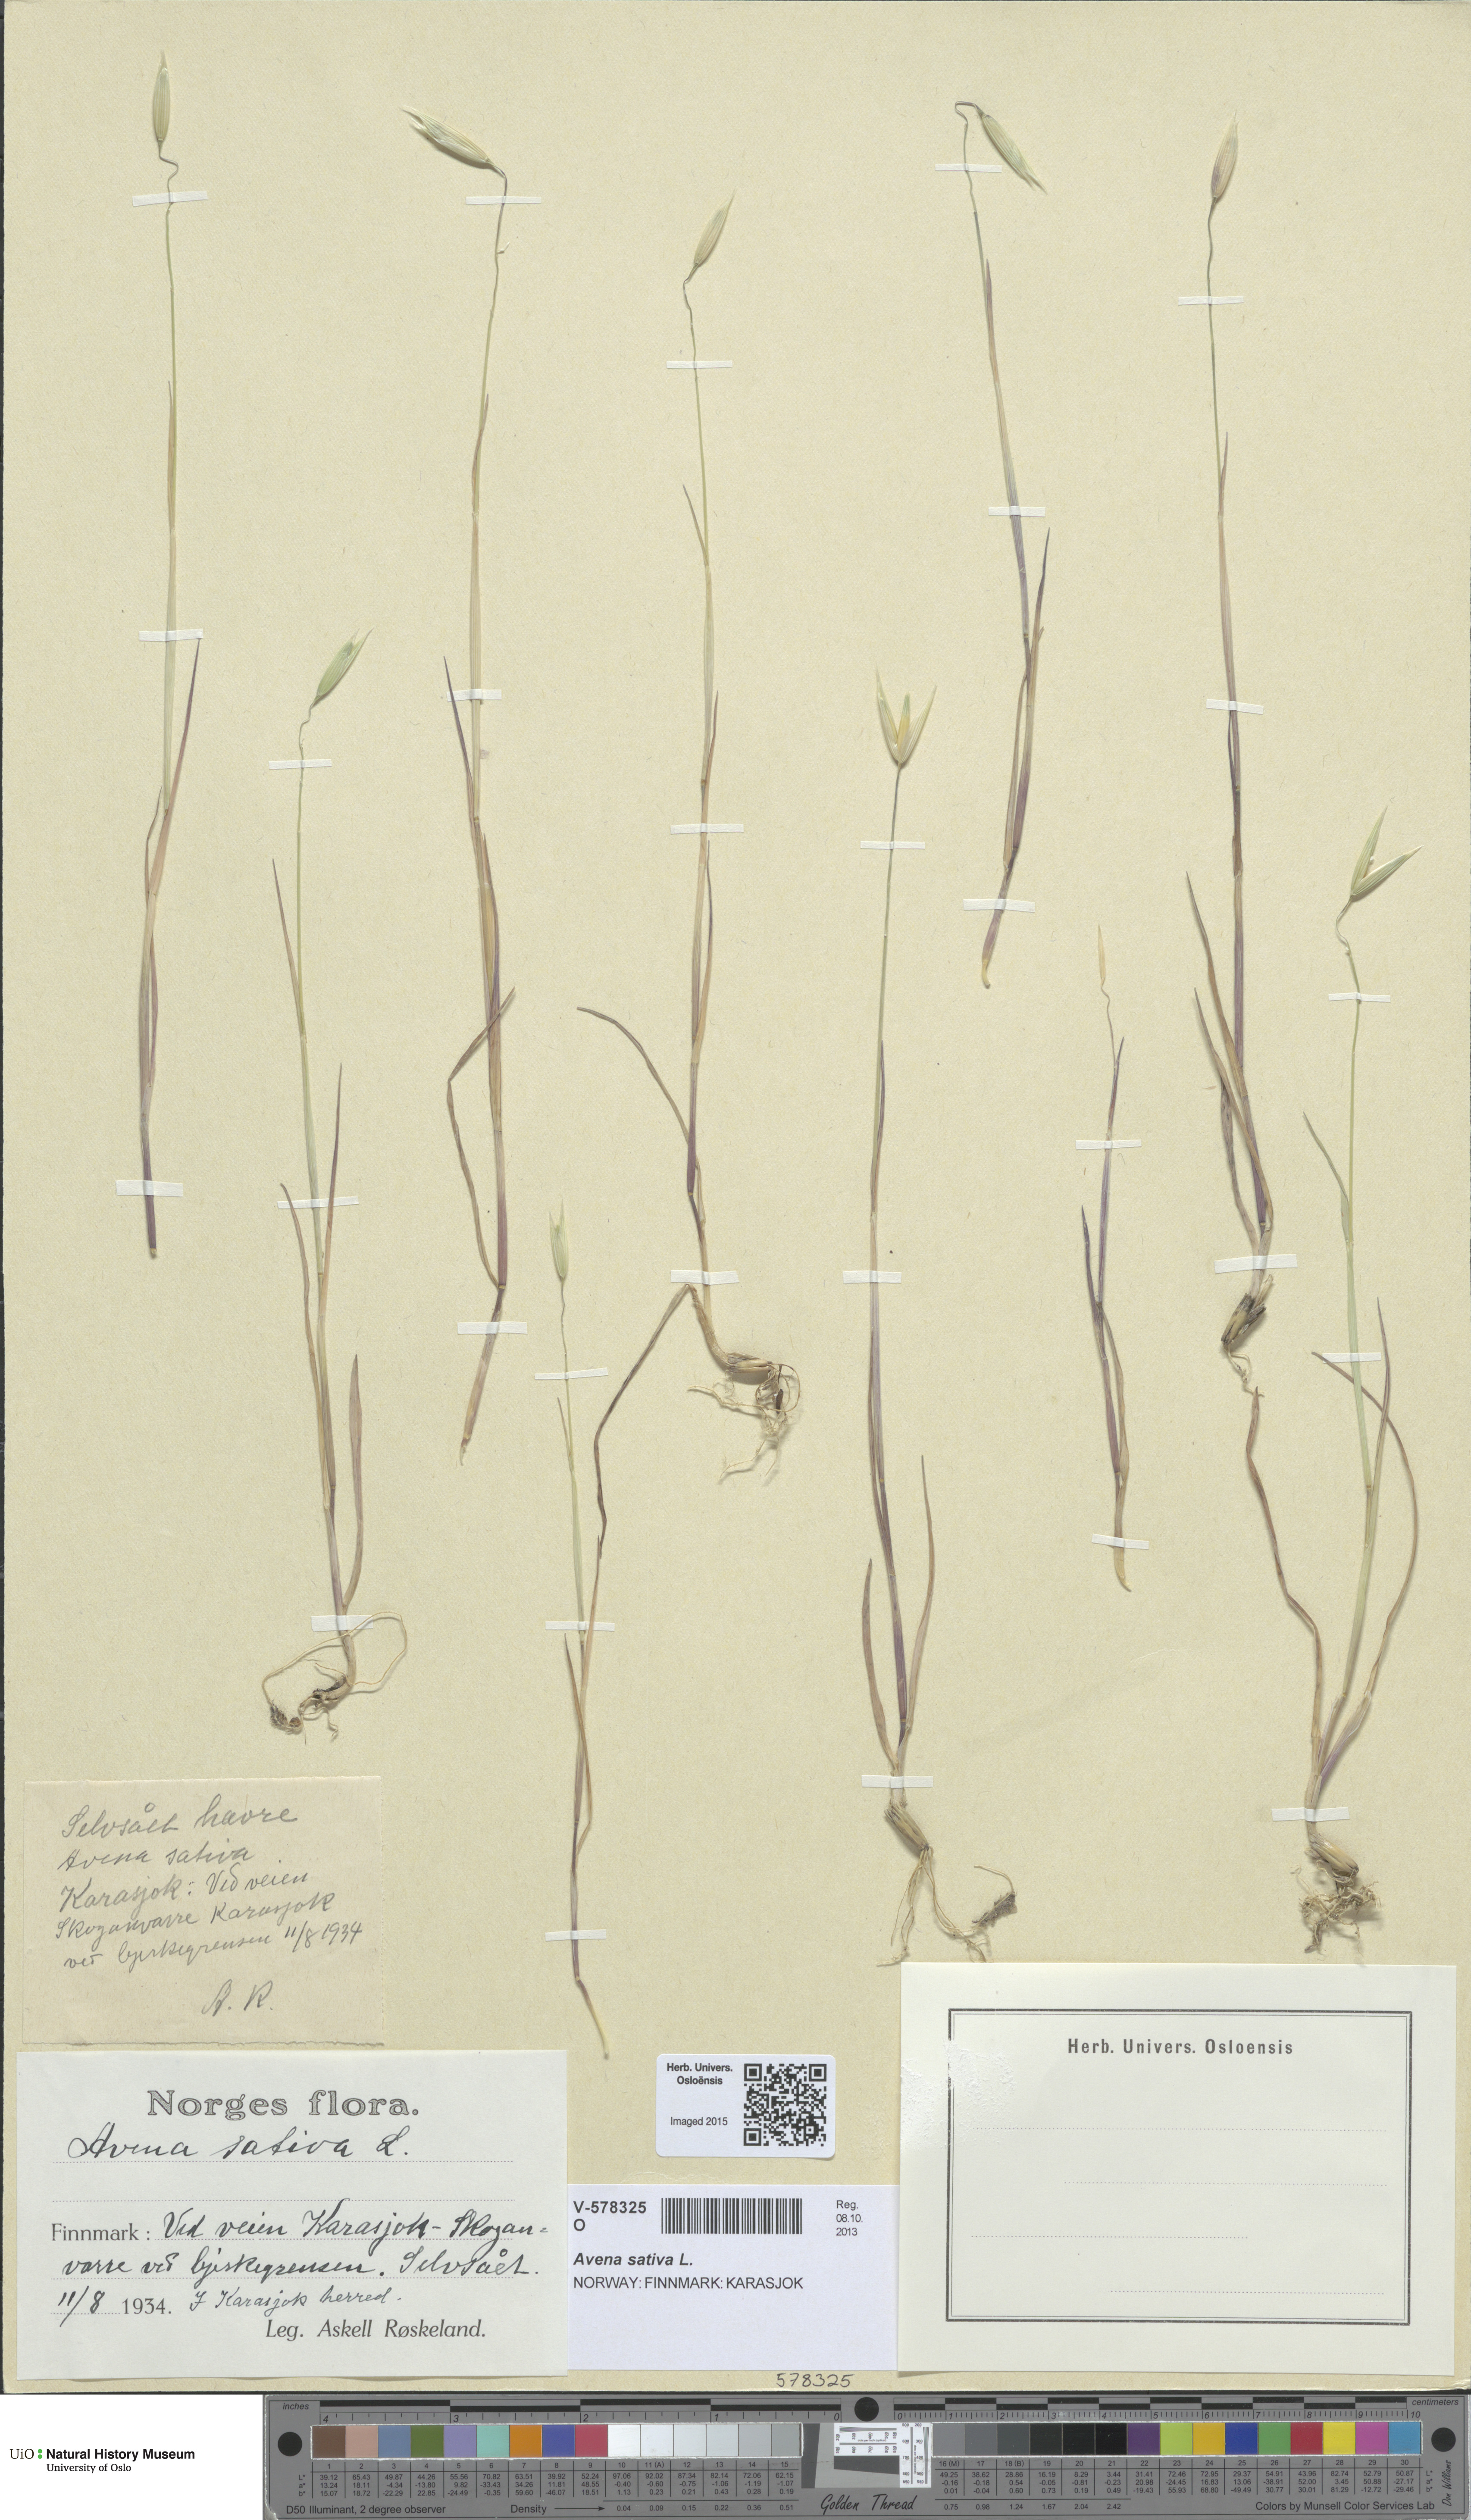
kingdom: Plantae
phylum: Tracheophyta
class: Liliopsida
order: Poales
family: Poaceae
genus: Avena
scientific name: Avena sativa
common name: Oat
